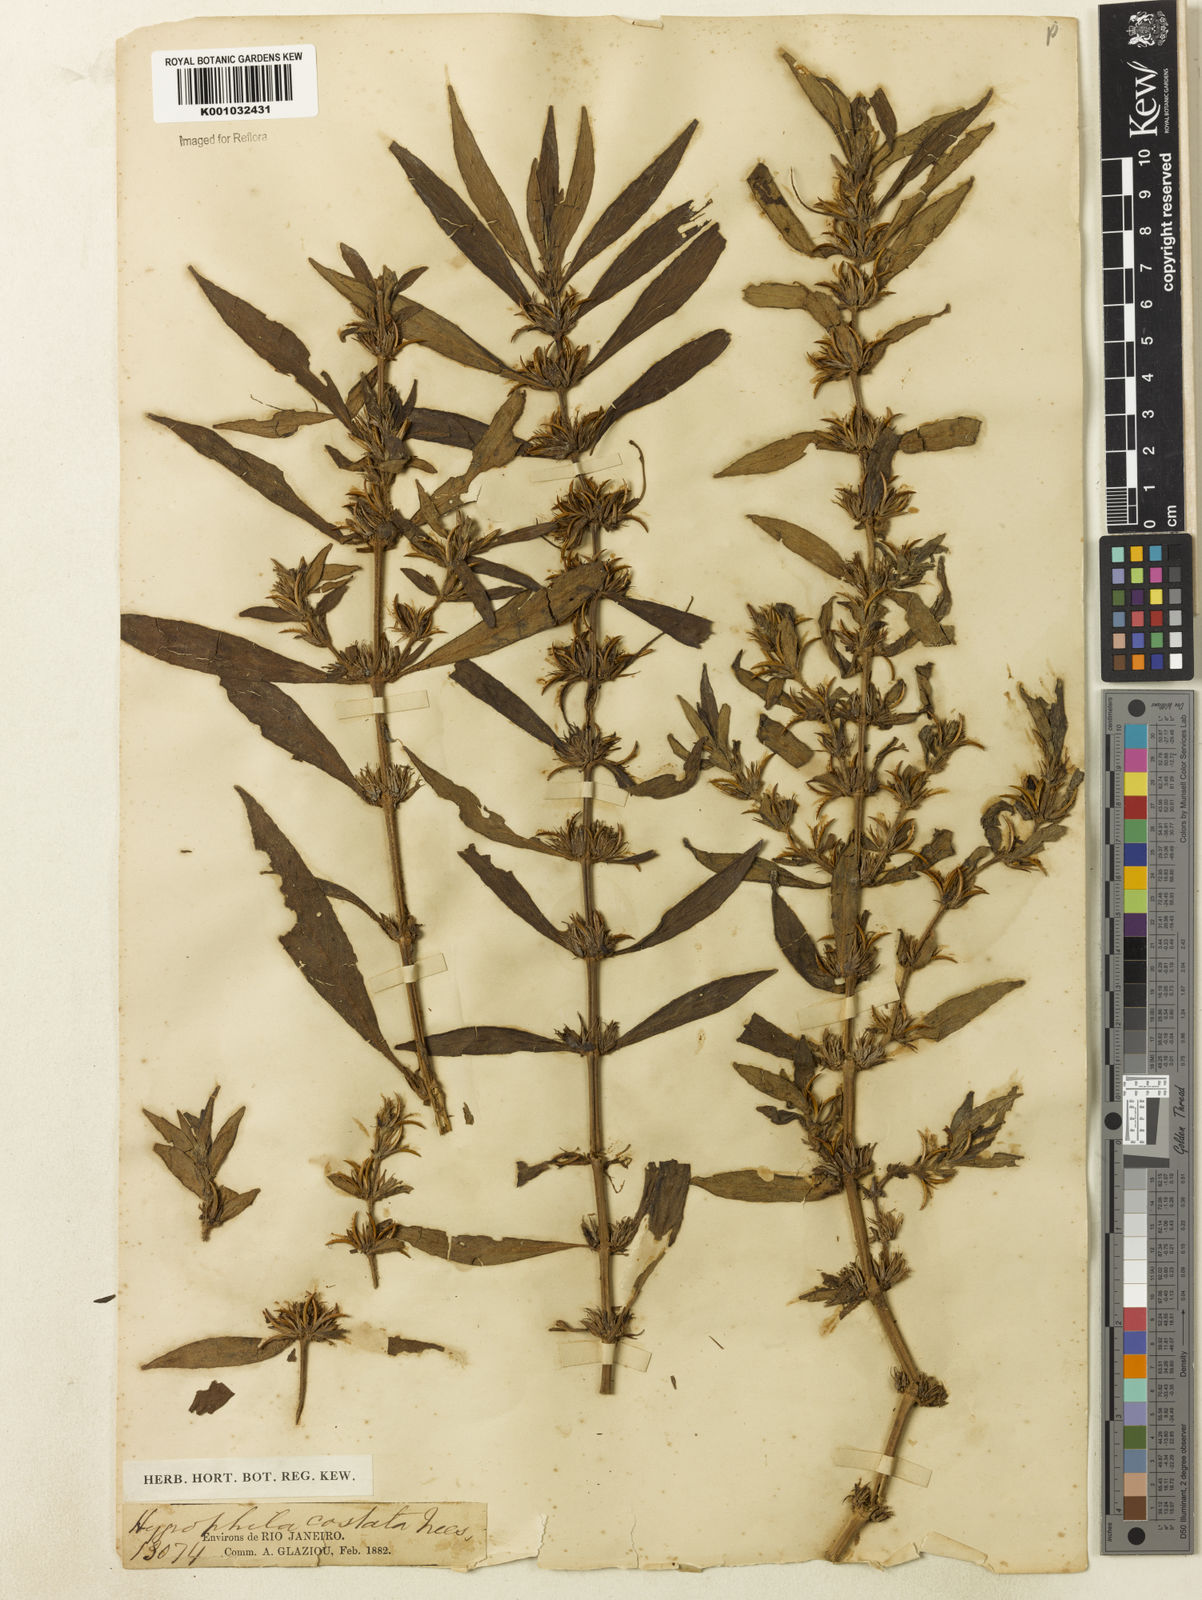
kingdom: Plantae
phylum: Tracheophyta
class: Magnoliopsida
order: Lamiales
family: Acanthaceae
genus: Hygrophila
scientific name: Hygrophila costata
